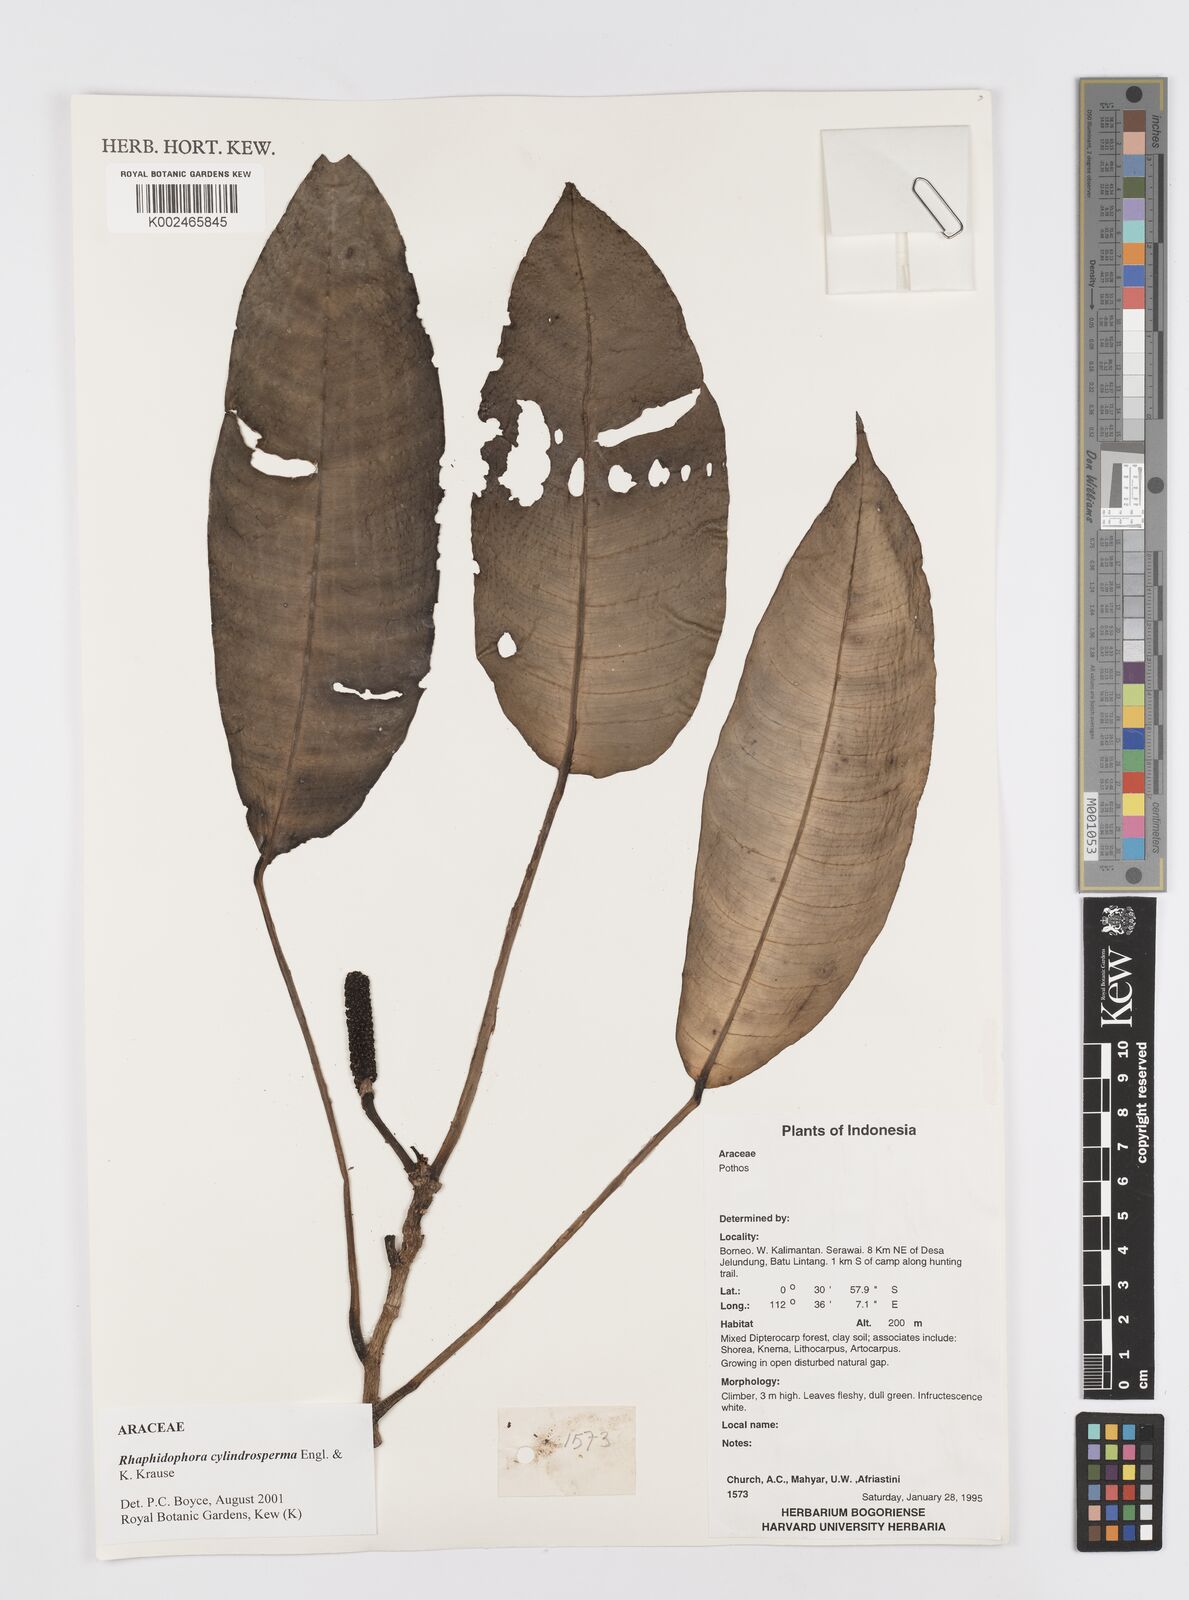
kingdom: Plantae
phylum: Tracheophyta
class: Liliopsida
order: Alismatales
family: Araceae
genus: Rhaphidophora
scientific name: Rhaphidophora cylindrosperma
